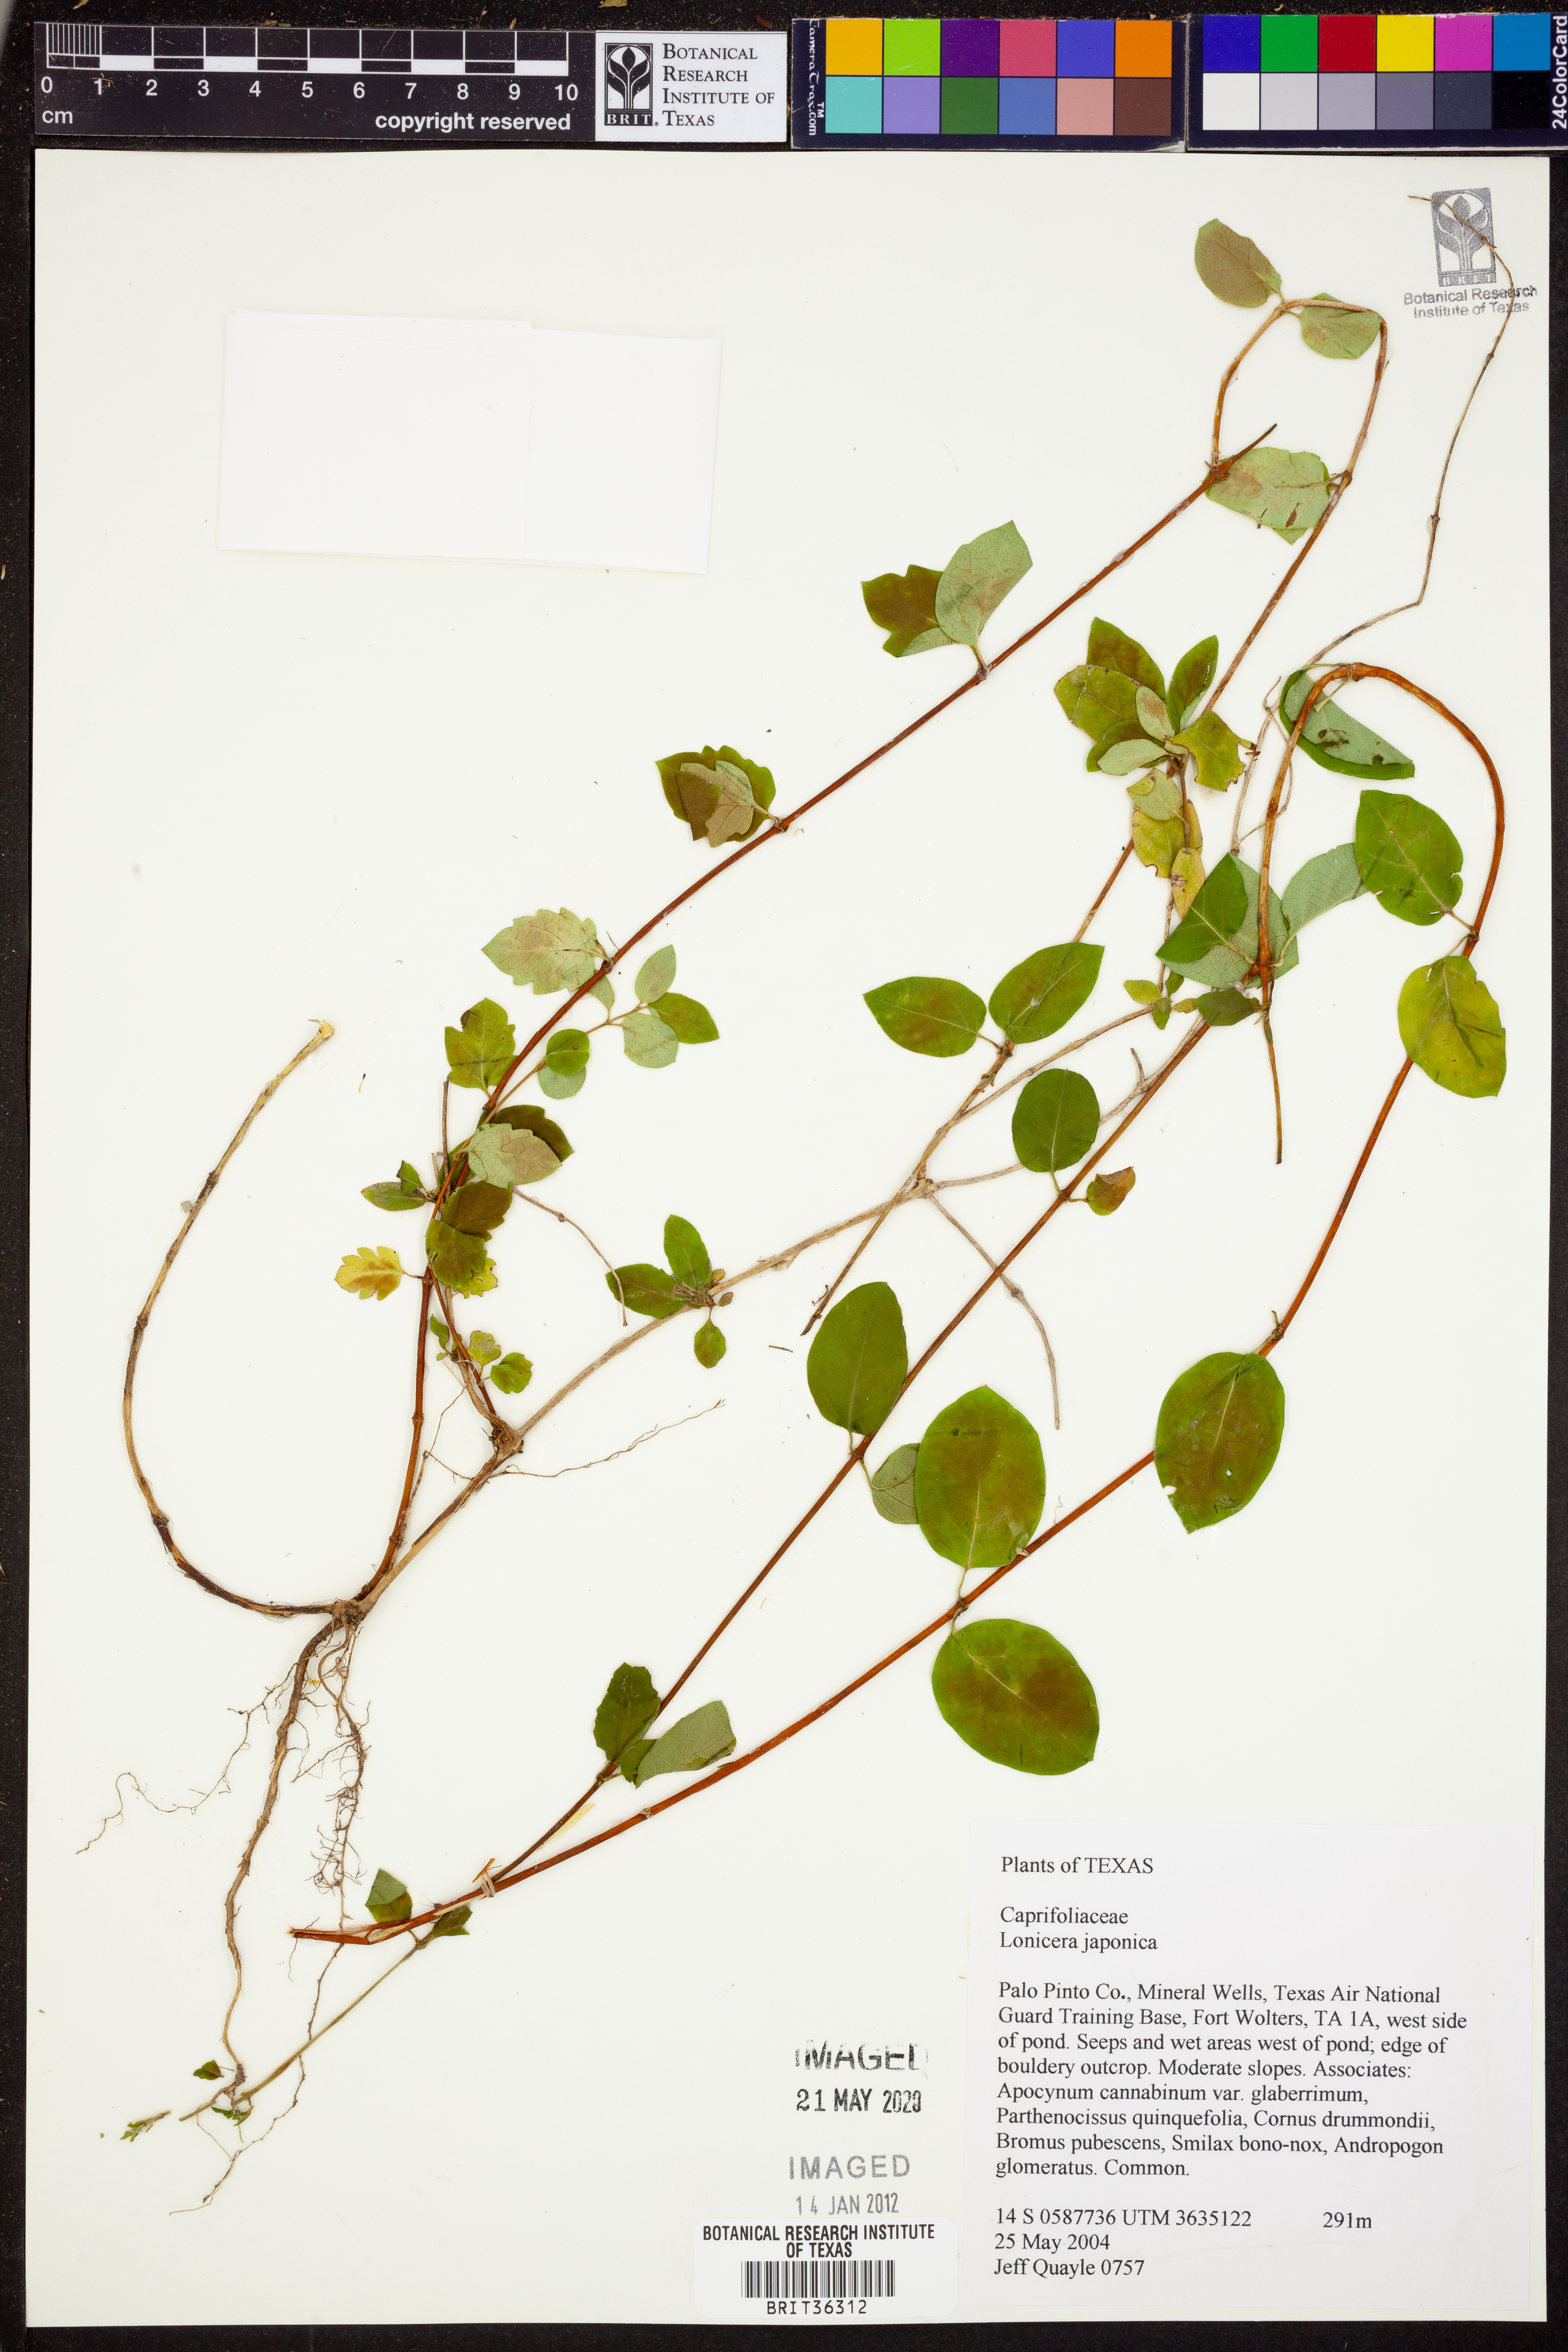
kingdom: Plantae
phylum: Tracheophyta
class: Magnoliopsida
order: Dipsacales
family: Caprifoliaceae
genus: Lonicera
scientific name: Lonicera japonica
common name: Japanese honeysuckle
